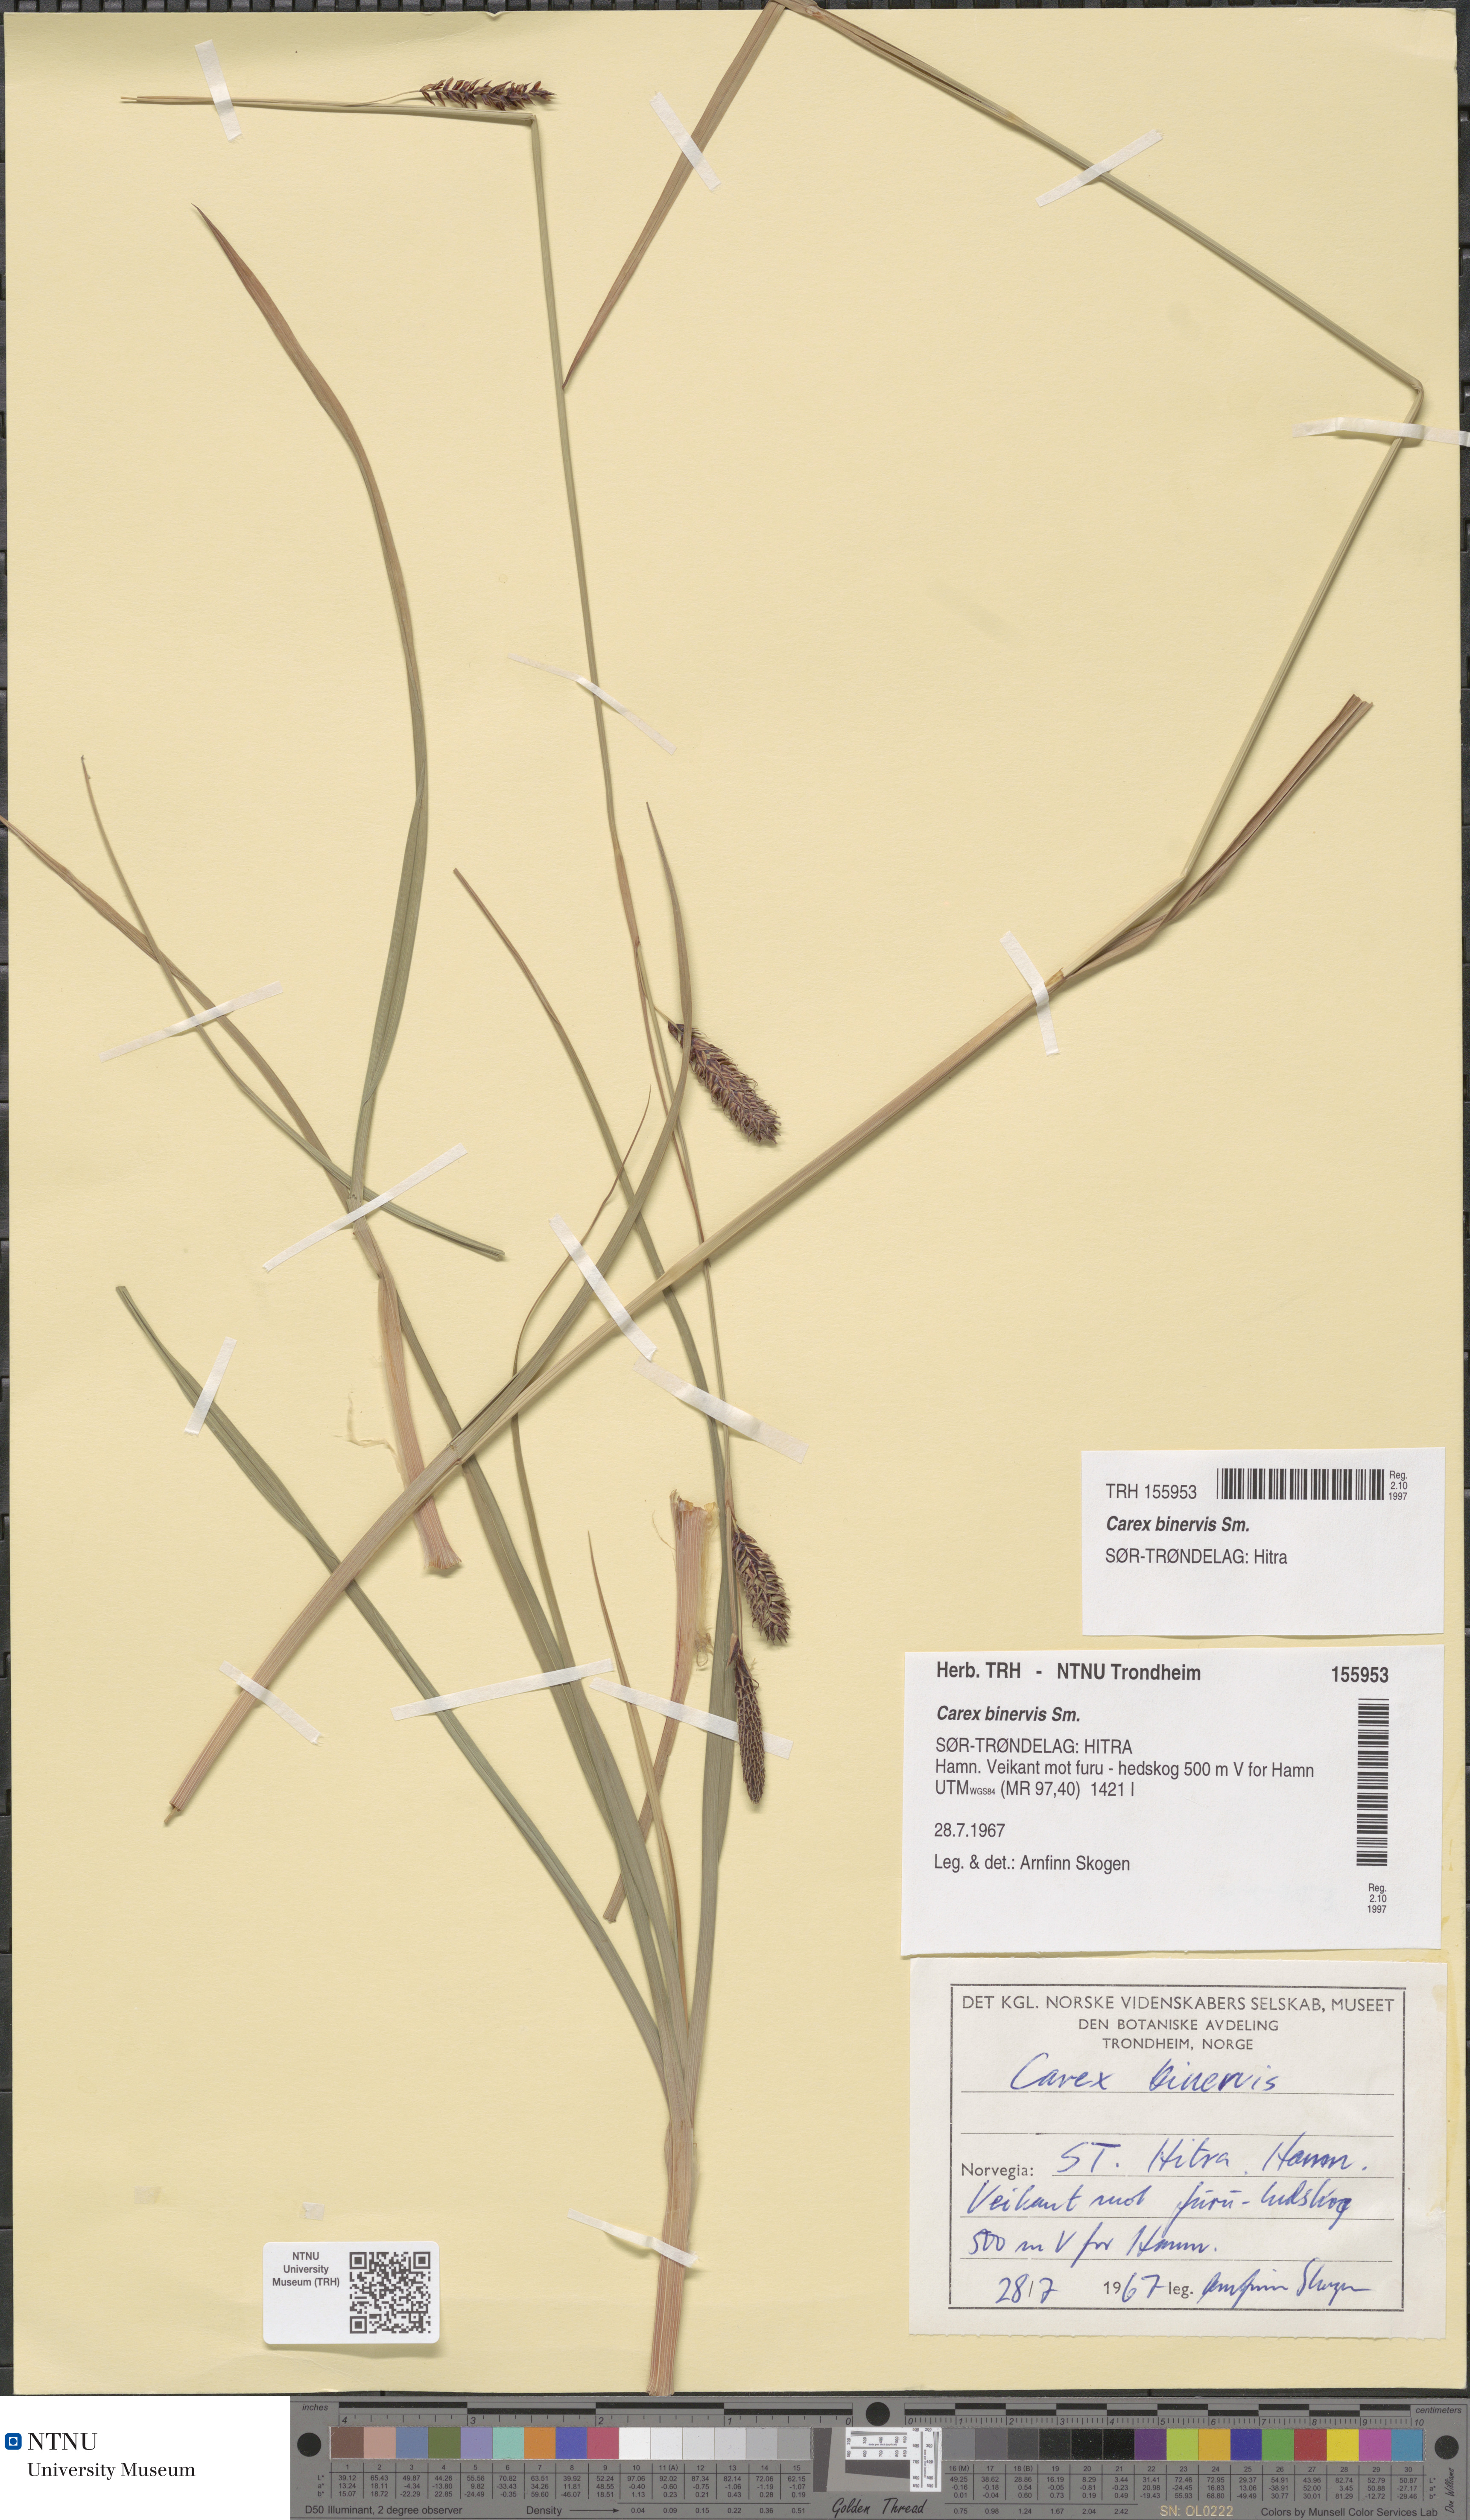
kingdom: Plantae
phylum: Tracheophyta
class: Liliopsida
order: Poales
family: Cyperaceae
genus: Carex
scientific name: Carex binervis
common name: Green-ribbed sedge
